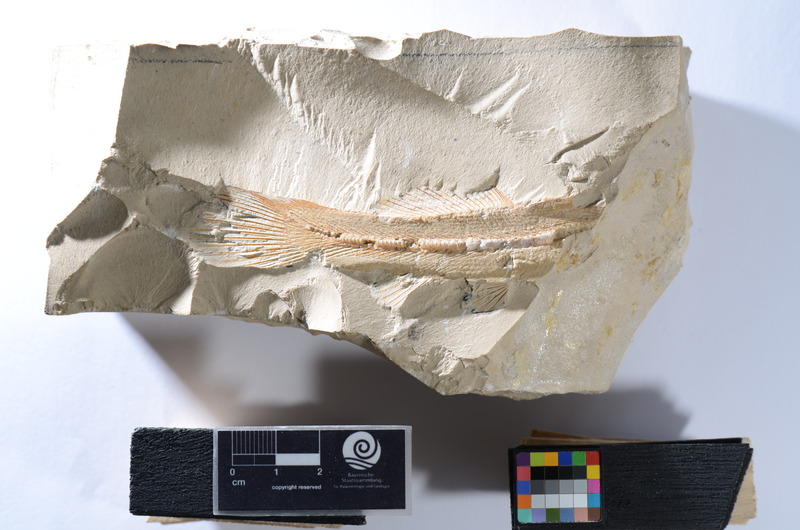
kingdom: Animalia
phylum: Chordata
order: Amiiformes
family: Amiidae
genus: Solnhofenamia
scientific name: Solnhofenamia elongata
